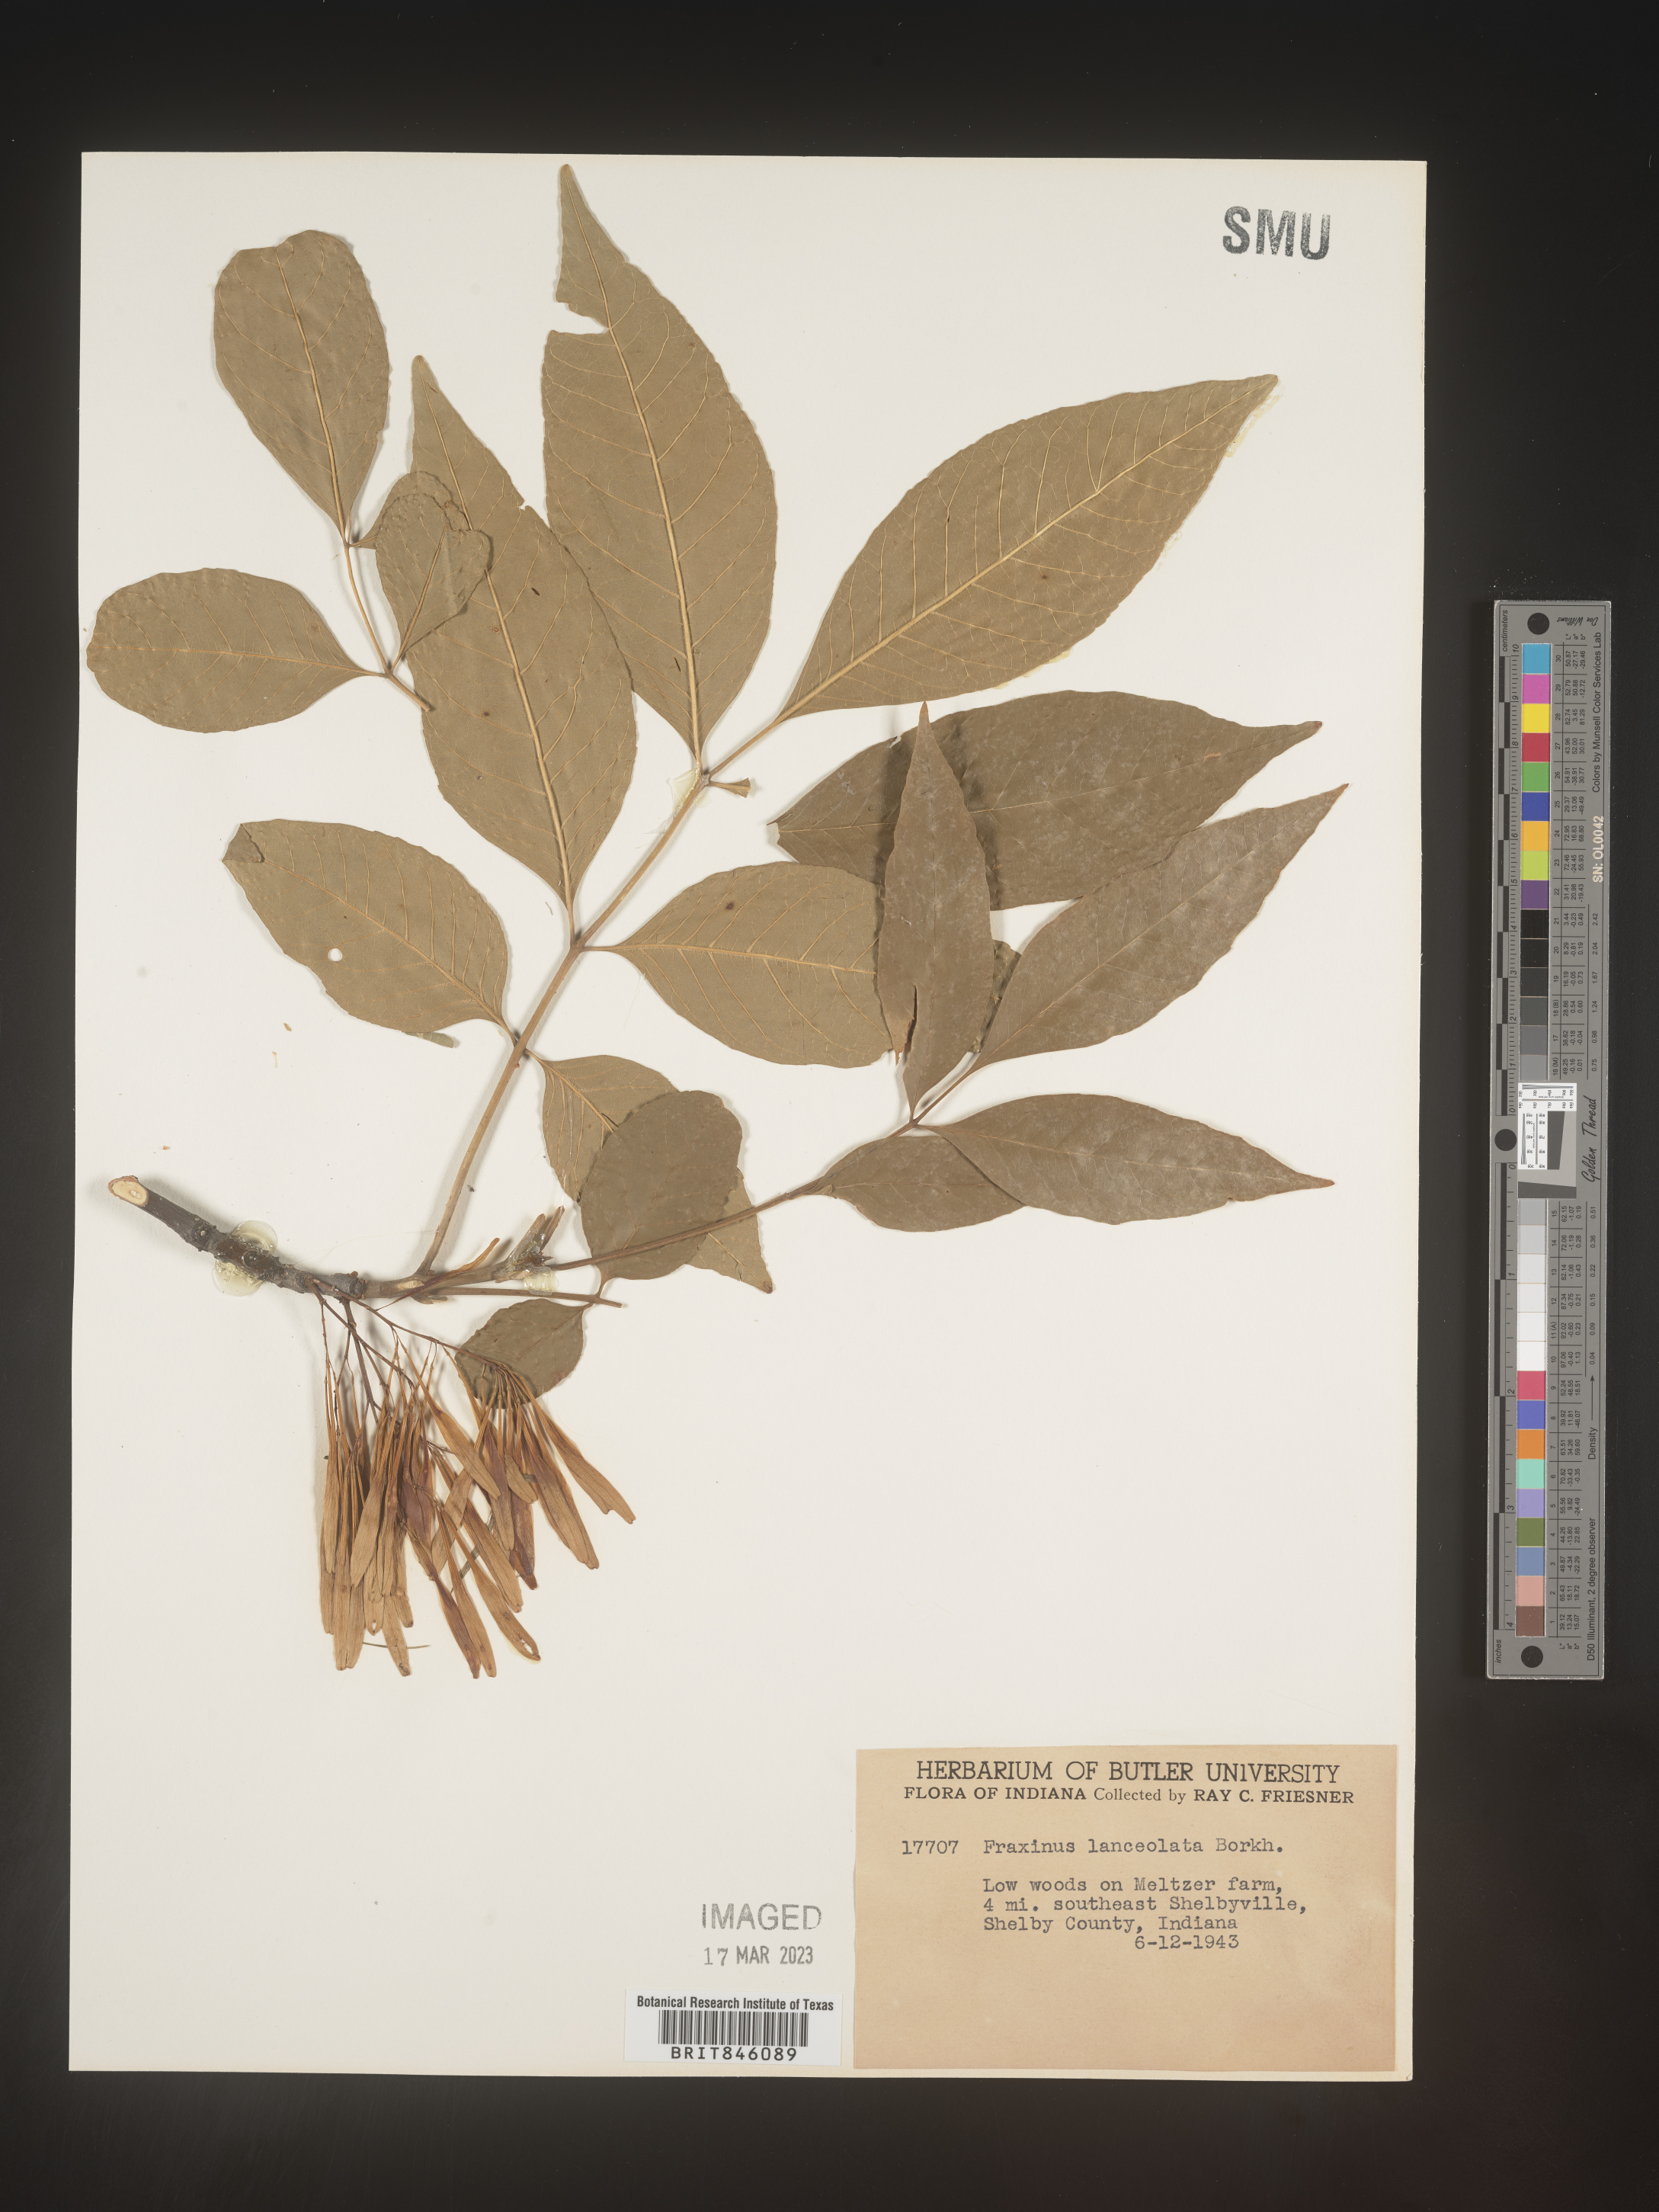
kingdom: Plantae
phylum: Tracheophyta
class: Magnoliopsida
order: Lamiales
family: Oleaceae
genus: Fraxinus
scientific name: Fraxinus pennsylvanica
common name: Green ash
